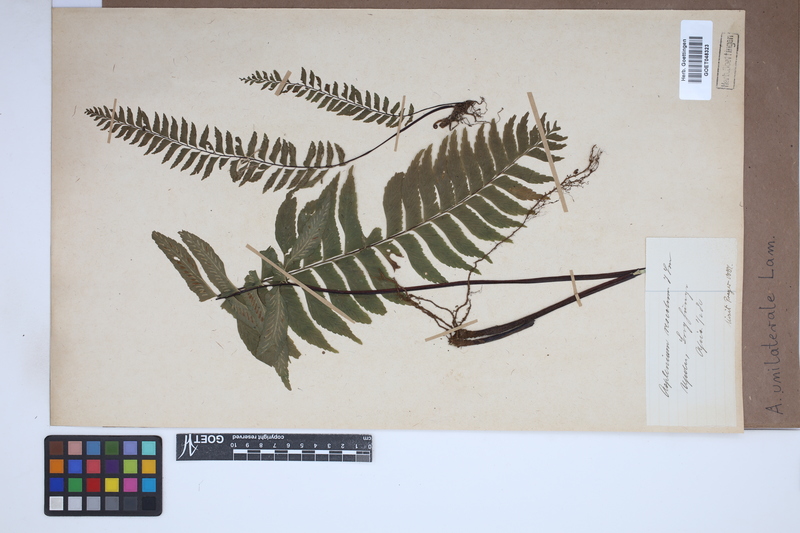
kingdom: Plantae
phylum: Tracheophyta
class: Polypodiopsida
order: Polypodiales
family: Aspleniaceae
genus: Hymenasplenium
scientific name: Hymenasplenium unilaterale
